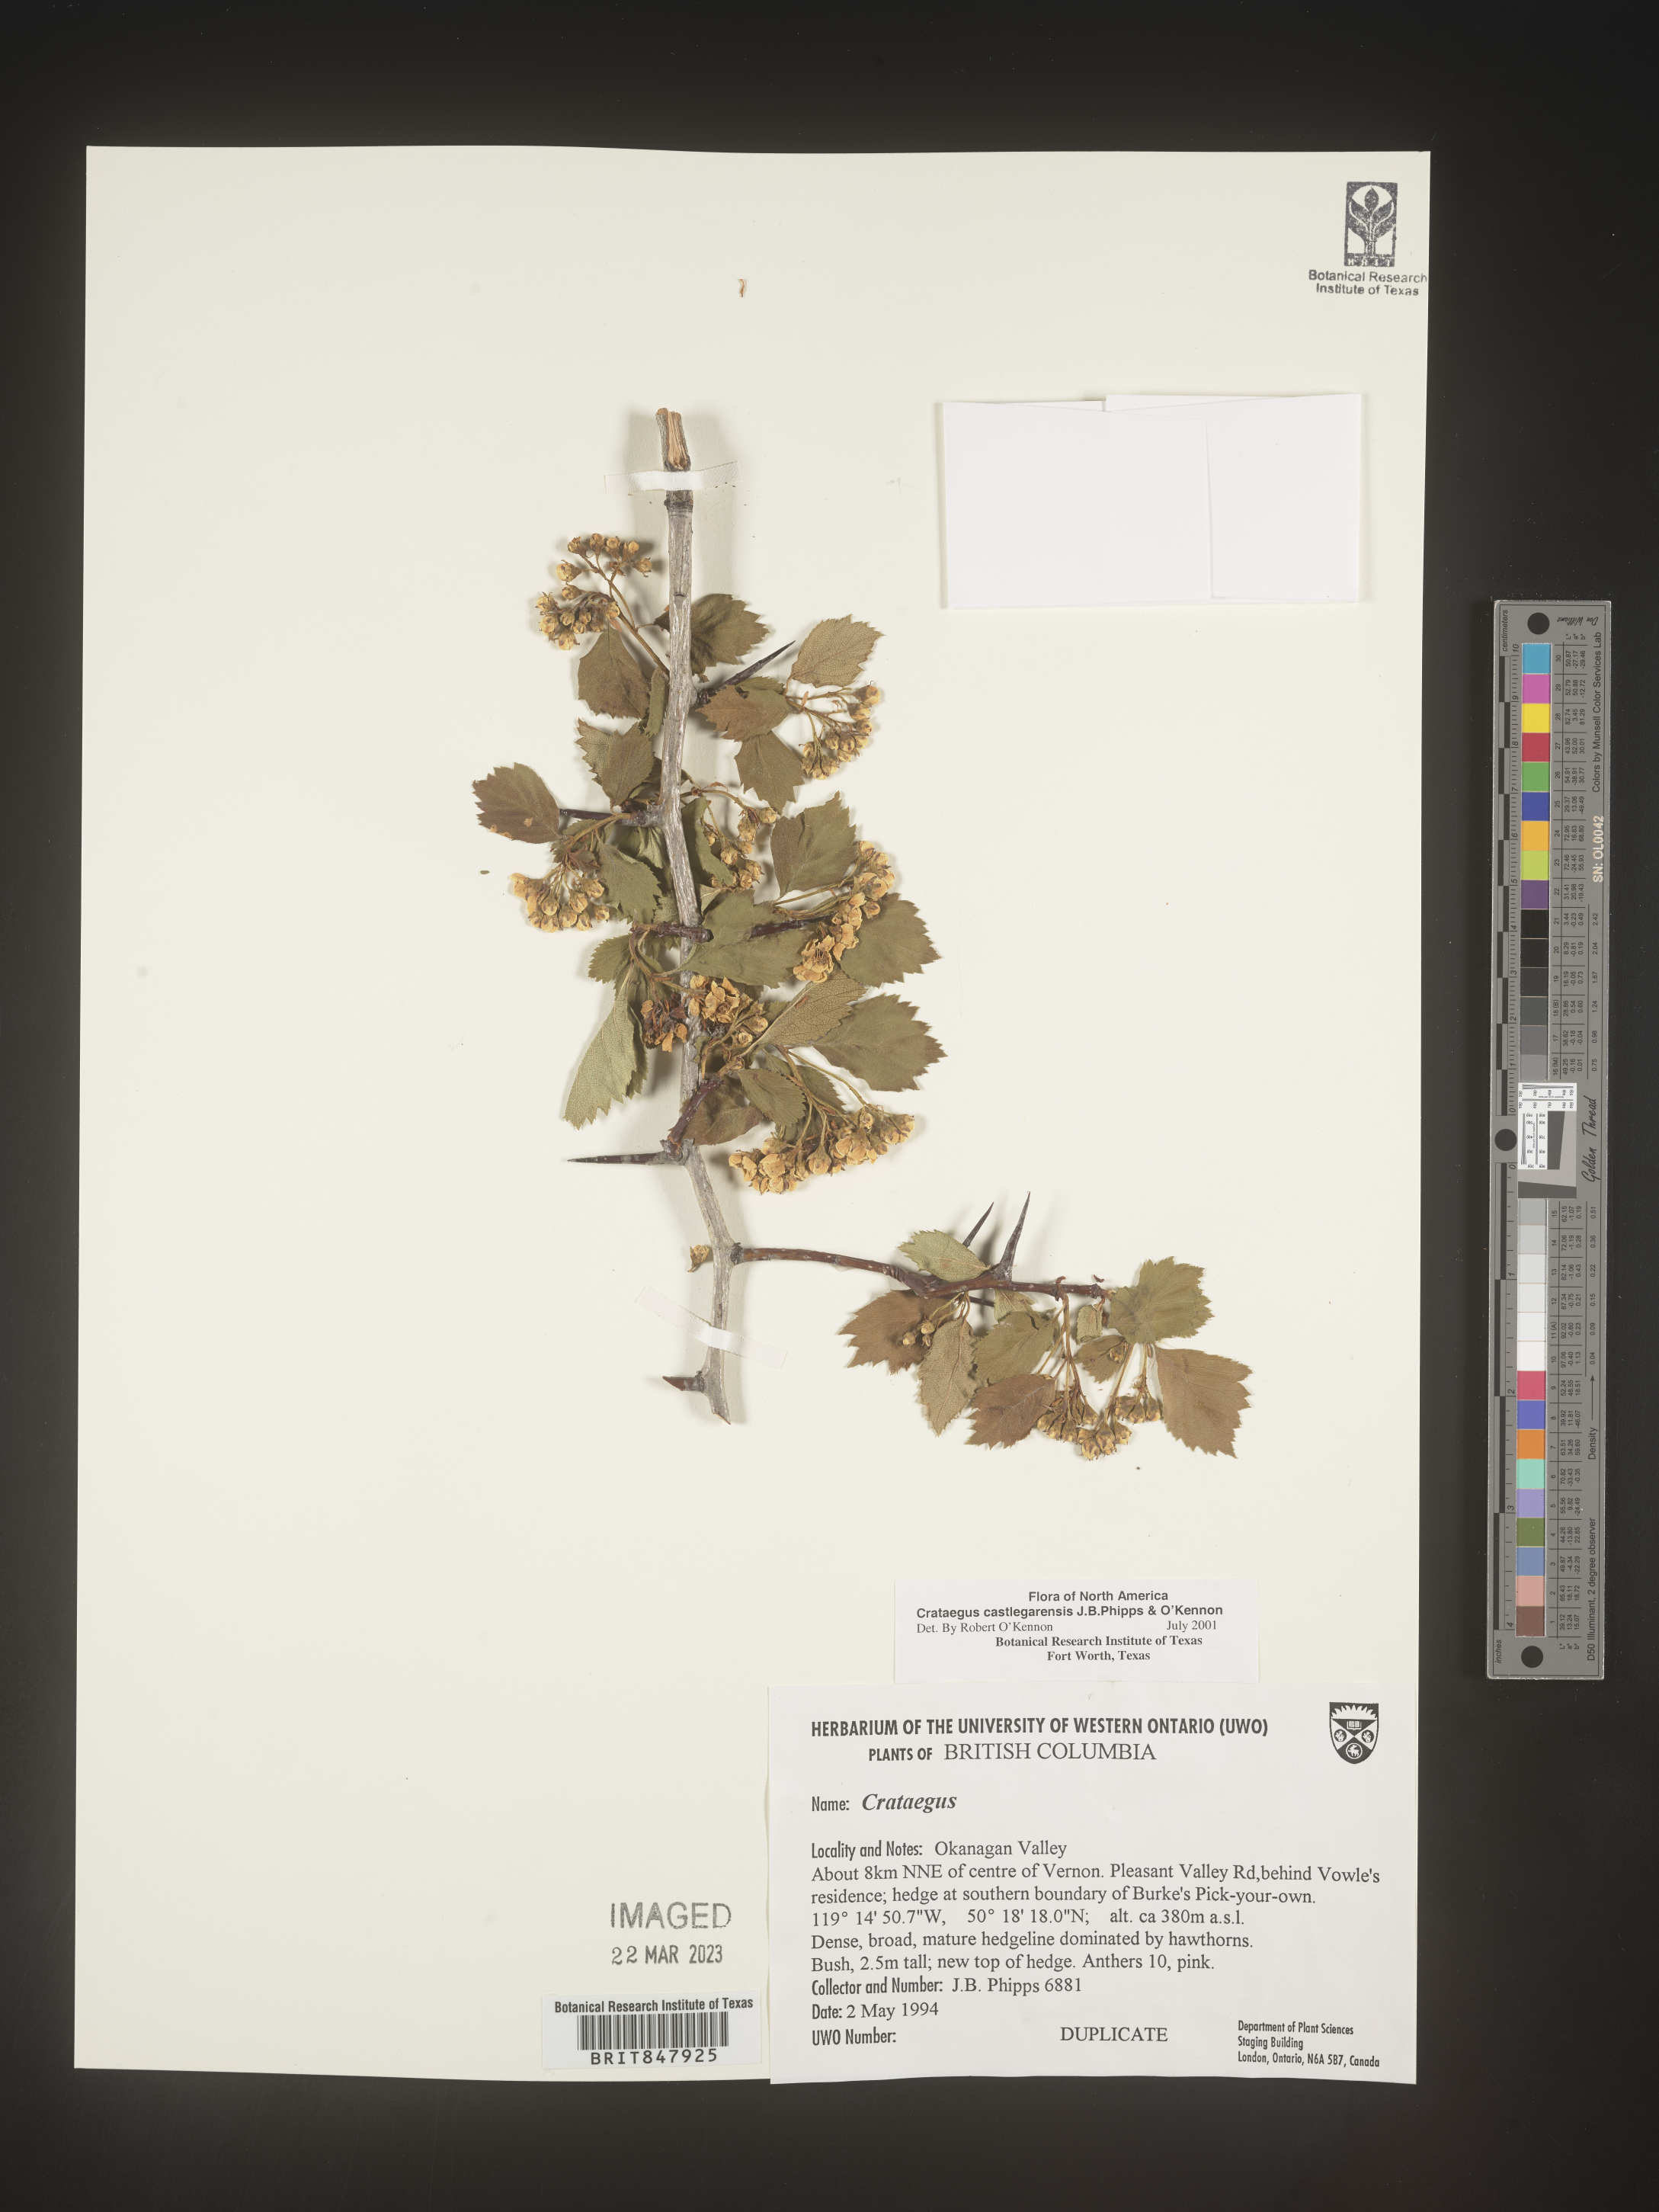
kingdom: Plantae
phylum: Tracheophyta
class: Magnoliopsida
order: Rosales
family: Rosaceae
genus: Crataegus
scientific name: Crataegus castlegarensis
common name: Castlegar hawthorn
